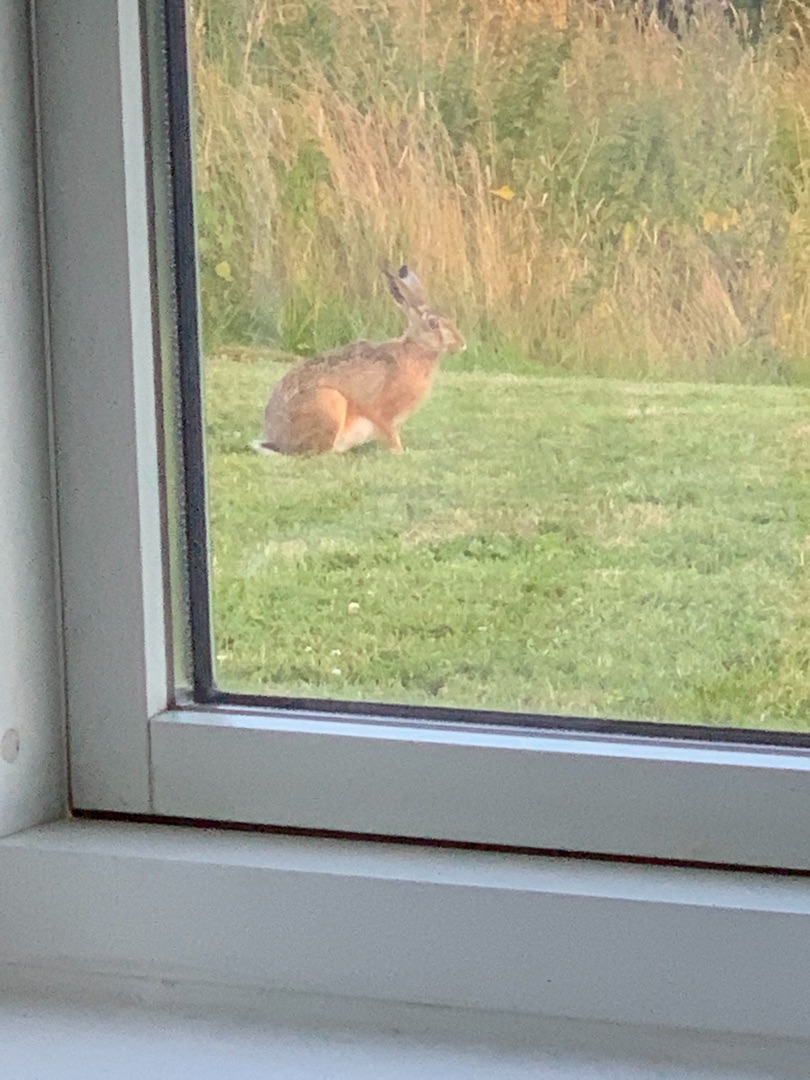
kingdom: Animalia
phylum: Chordata
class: Mammalia
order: Lagomorpha
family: Leporidae
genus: Lepus
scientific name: Lepus europaeus
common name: Hare
